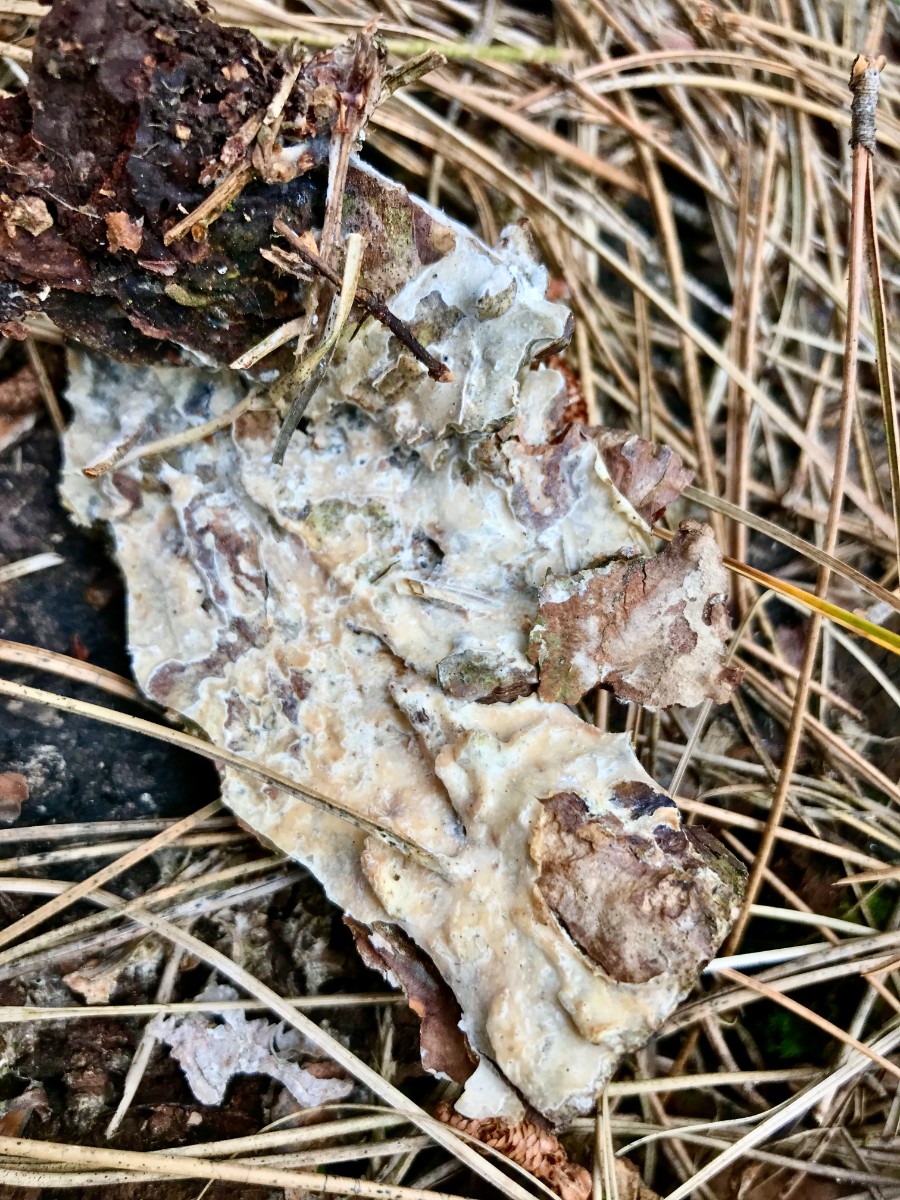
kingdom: Fungi
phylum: Basidiomycota
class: Agaricomycetes
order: Polyporales
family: Phanerochaetaceae
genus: Phlebiopsis
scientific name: Phlebiopsis gigantea
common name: kæmpebarksvamp
